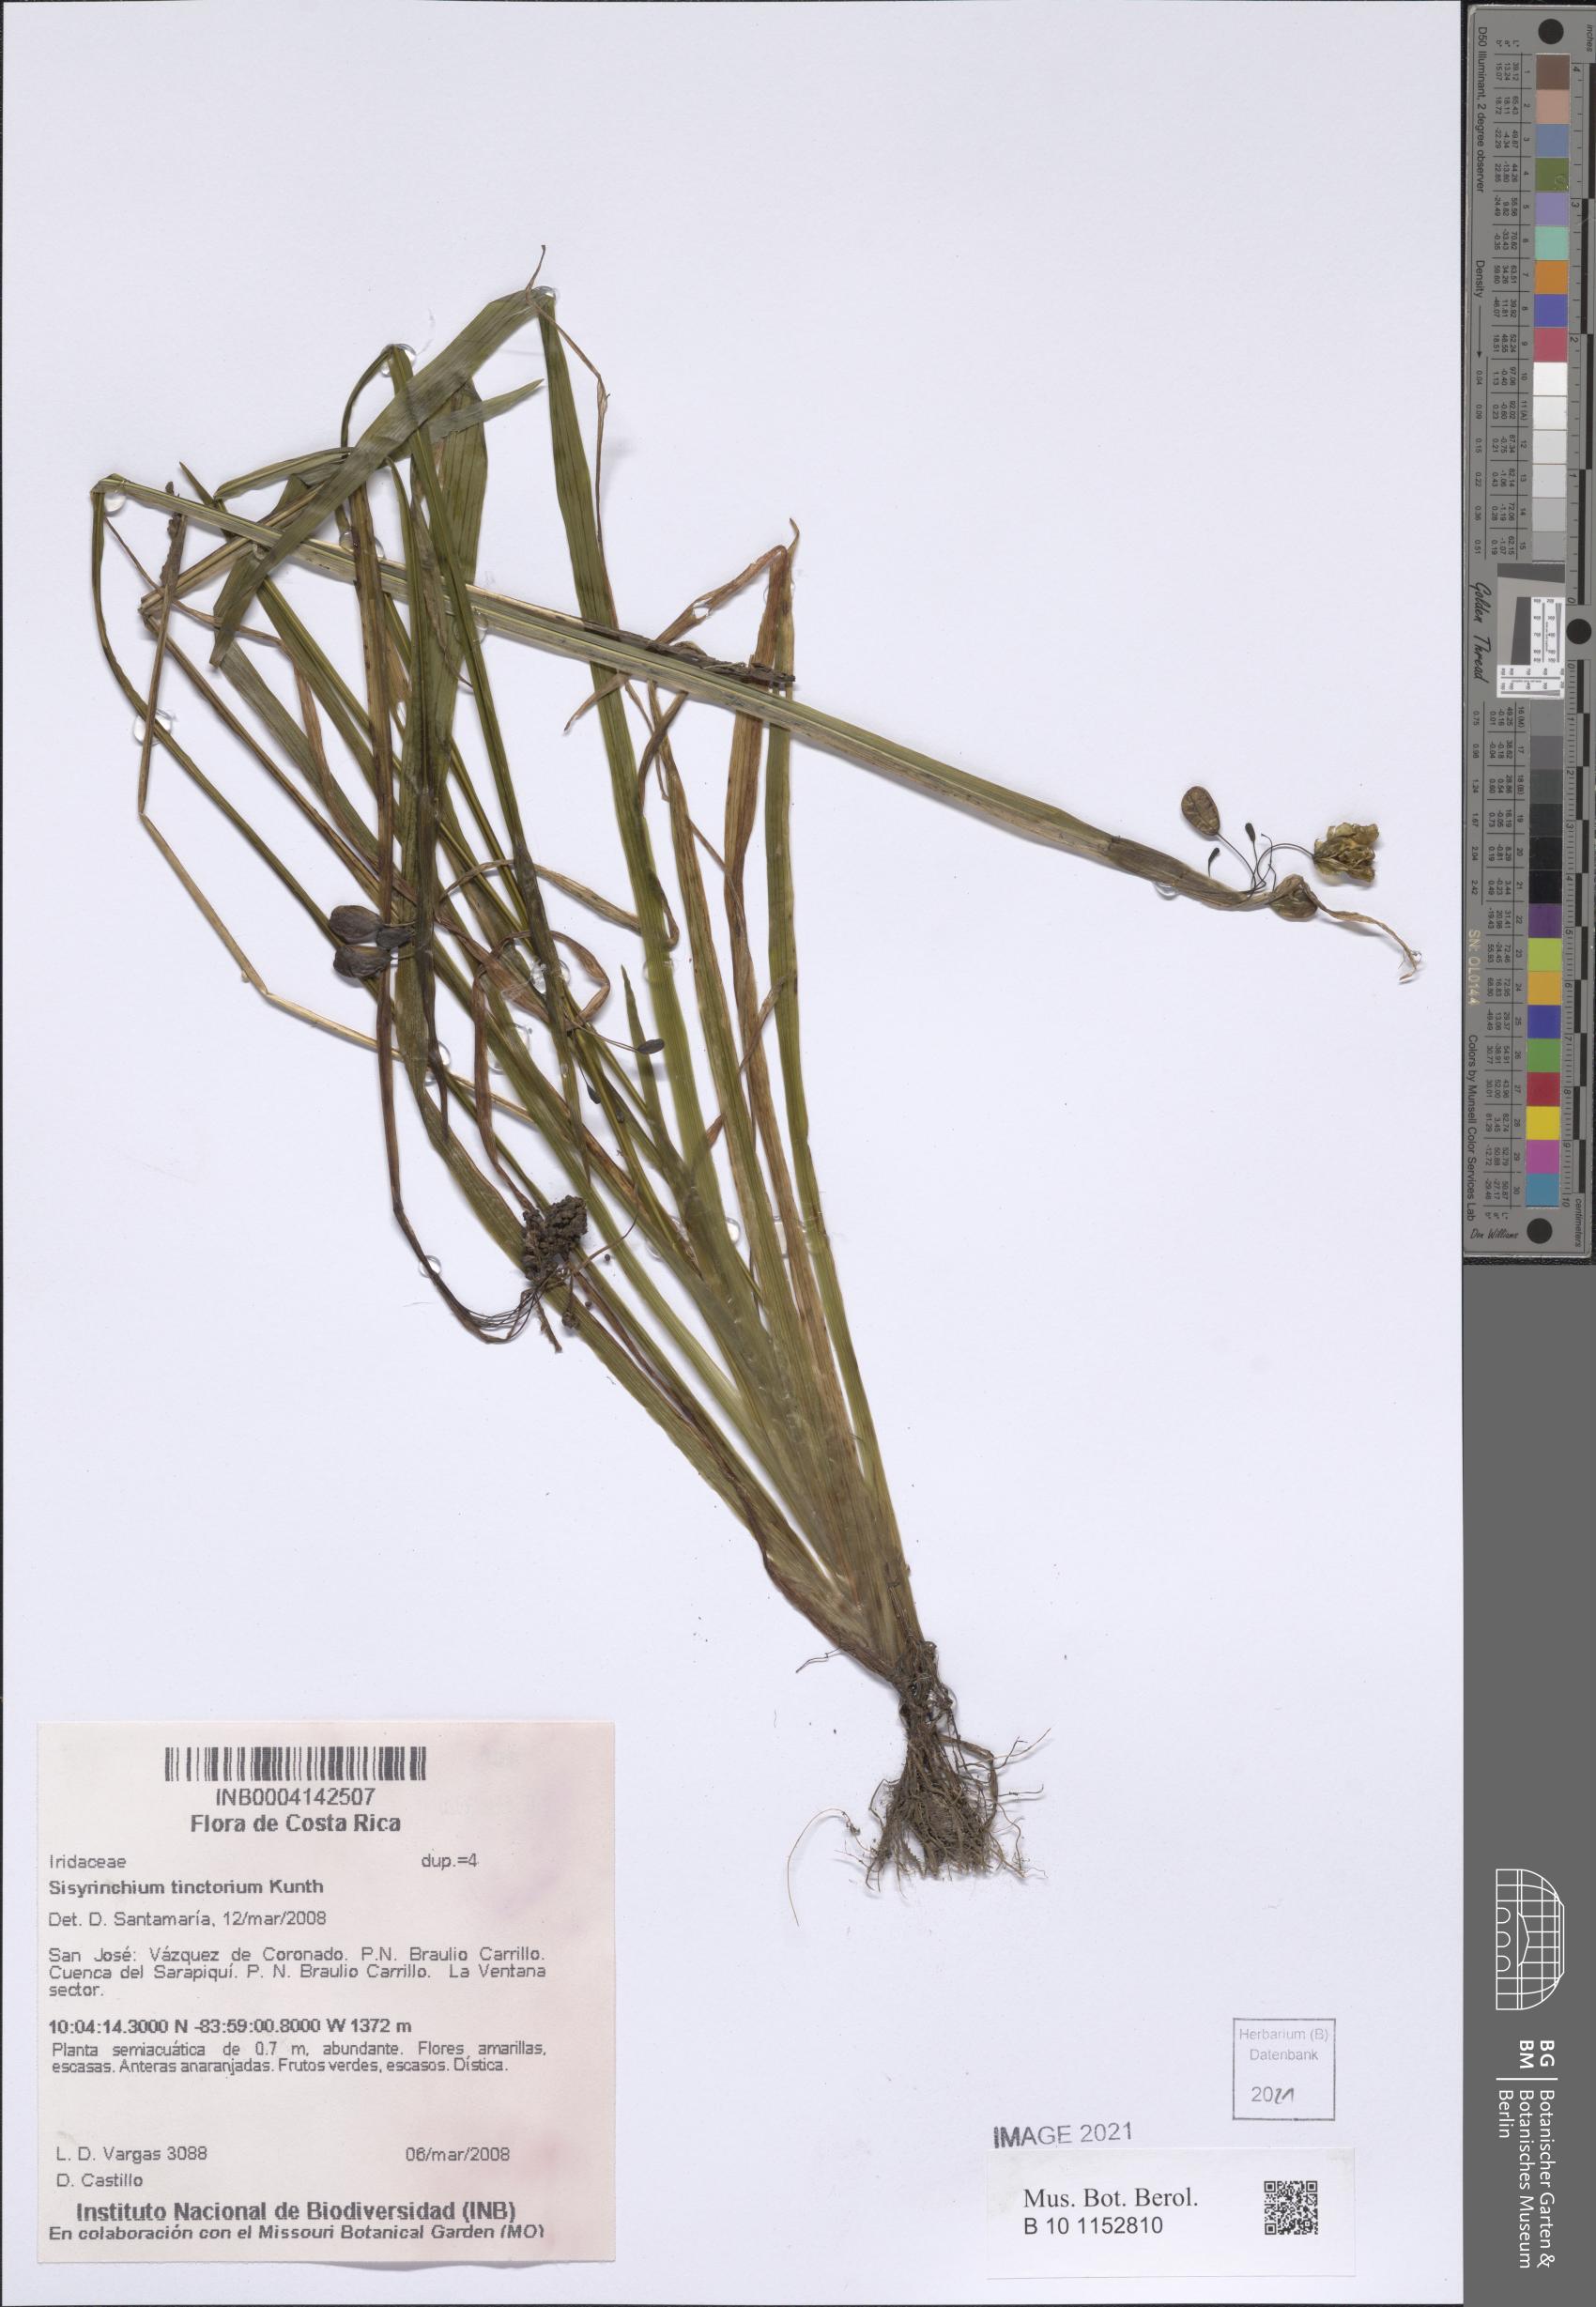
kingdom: Plantae
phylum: Tracheophyta
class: Liliopsida
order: Asparagales
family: Iridaceae
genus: Sisyrinchium
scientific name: Sisyrinchium tinctorium
